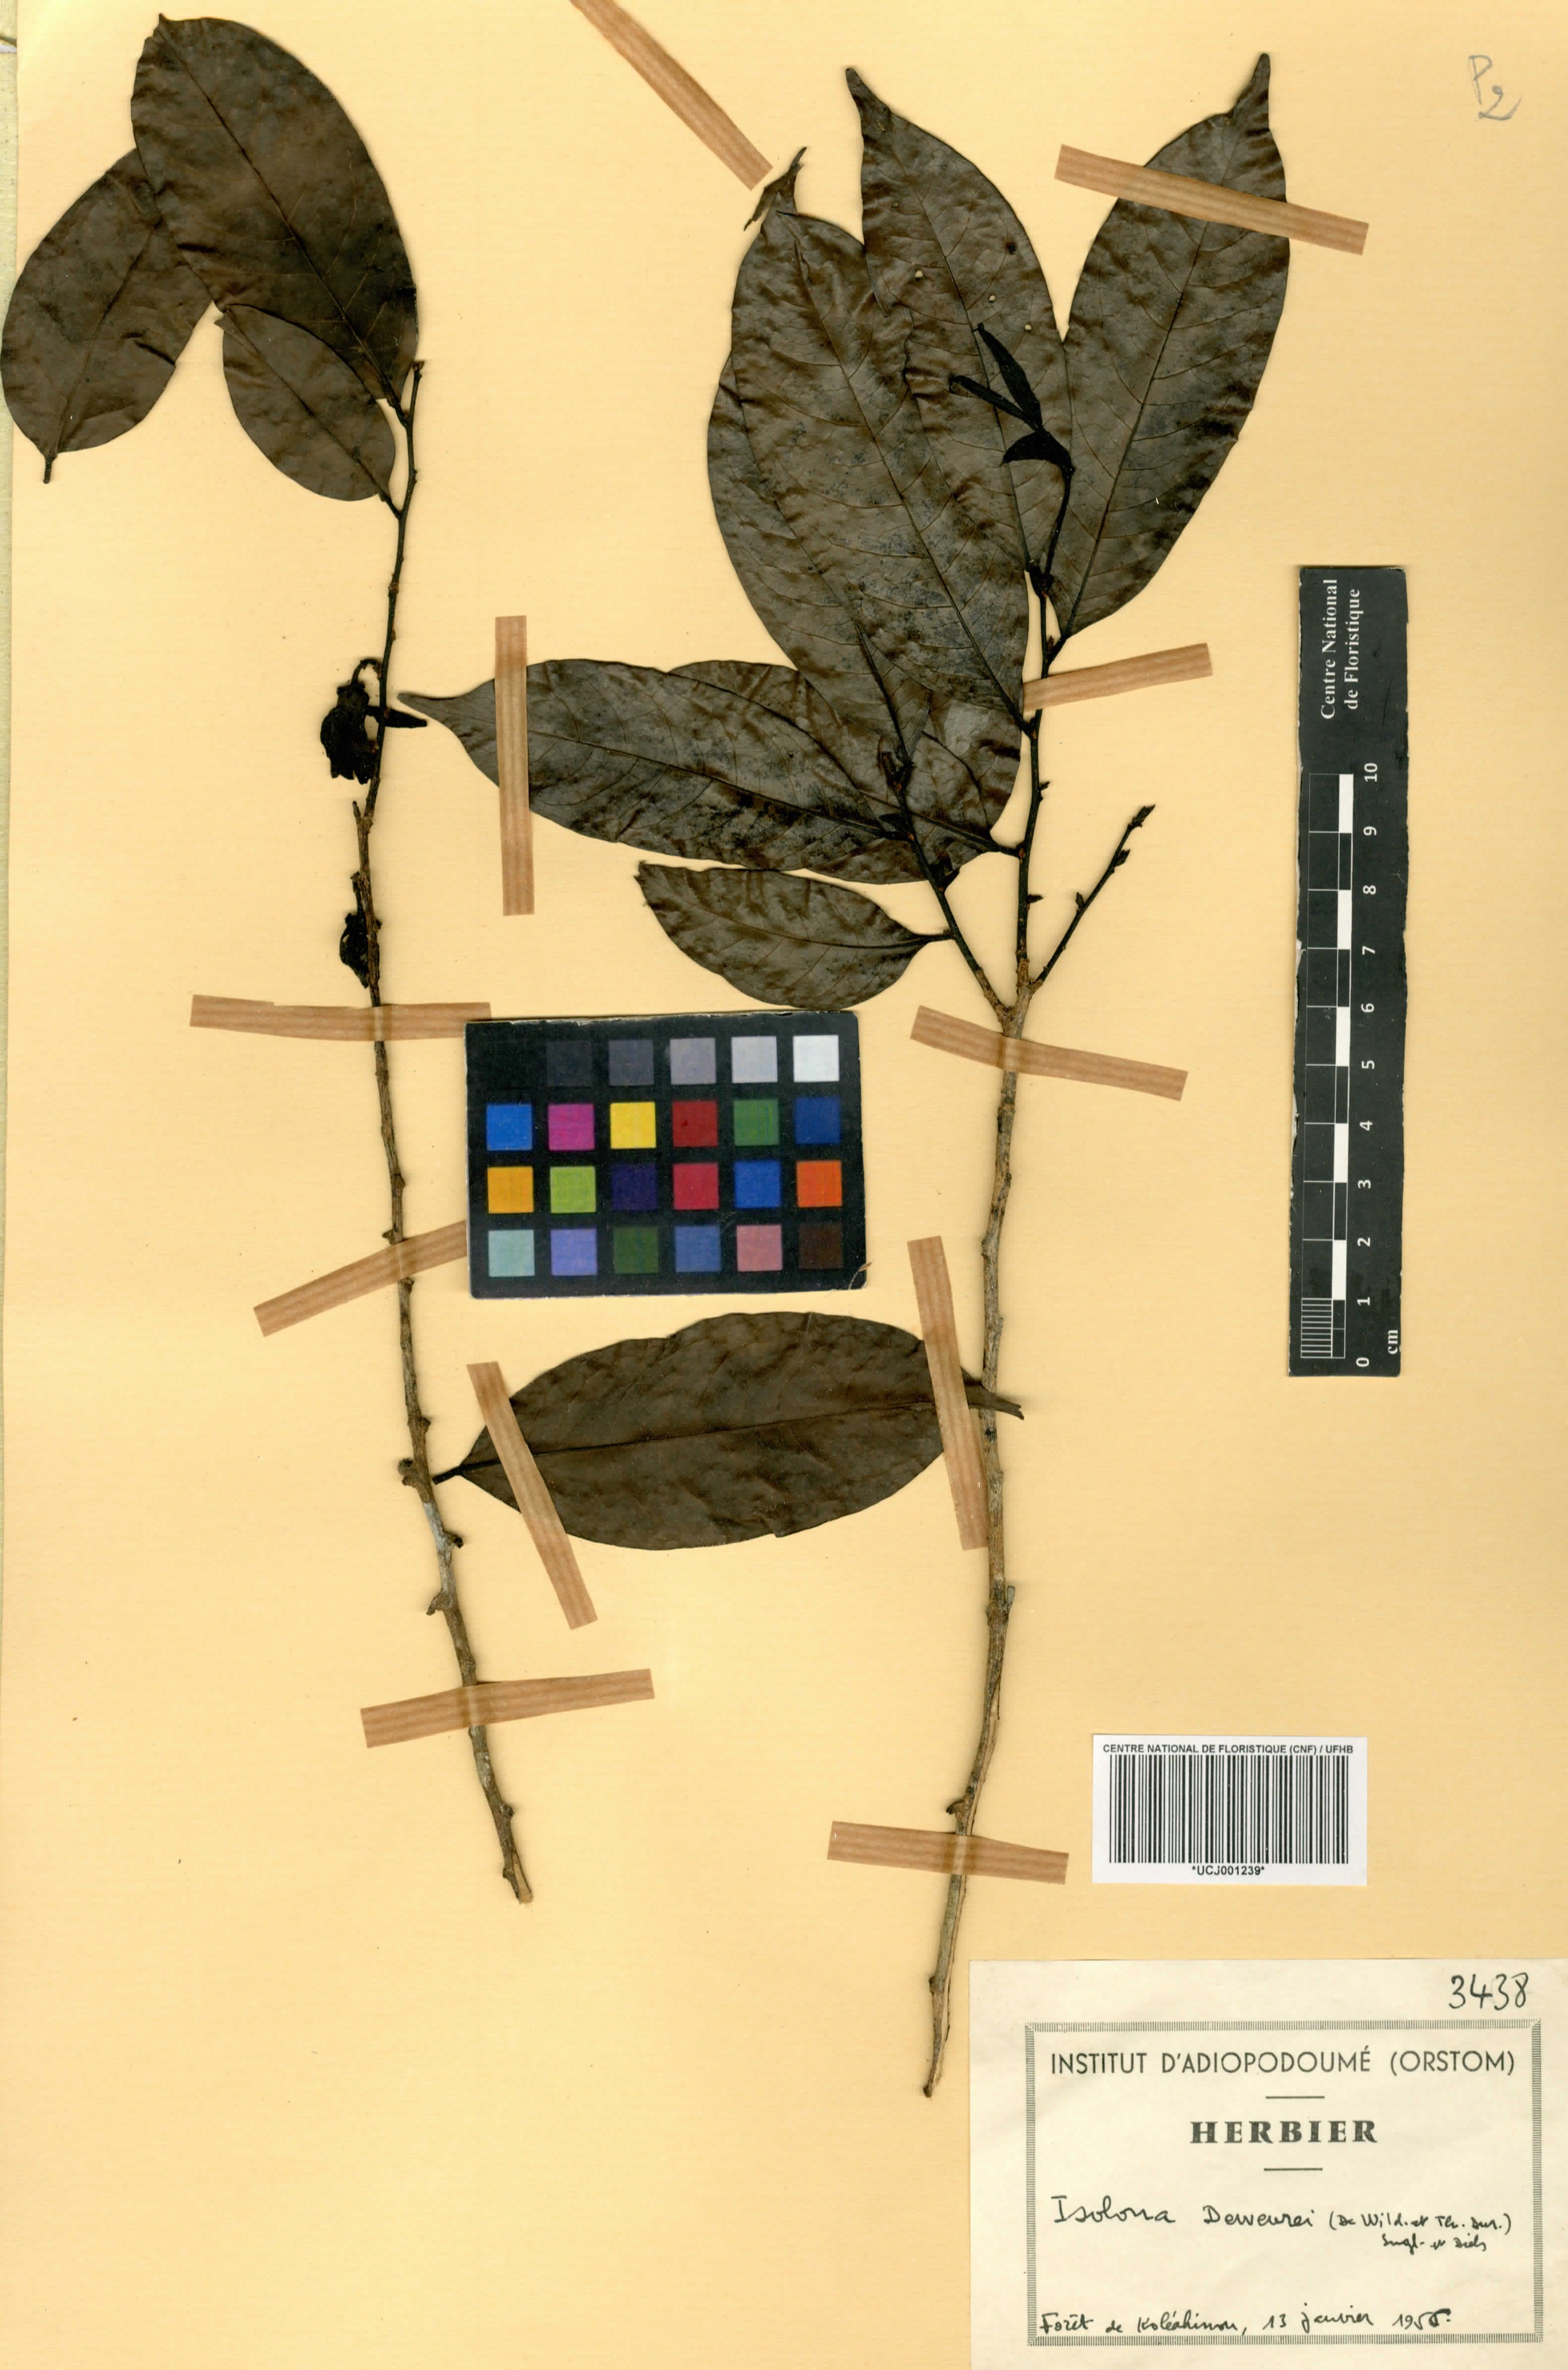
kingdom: Plantae
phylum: Tracheophyta
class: Magnoliopsida
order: Magnoliales
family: Annonaceae
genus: Isolona
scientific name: Isolona dewevrei
